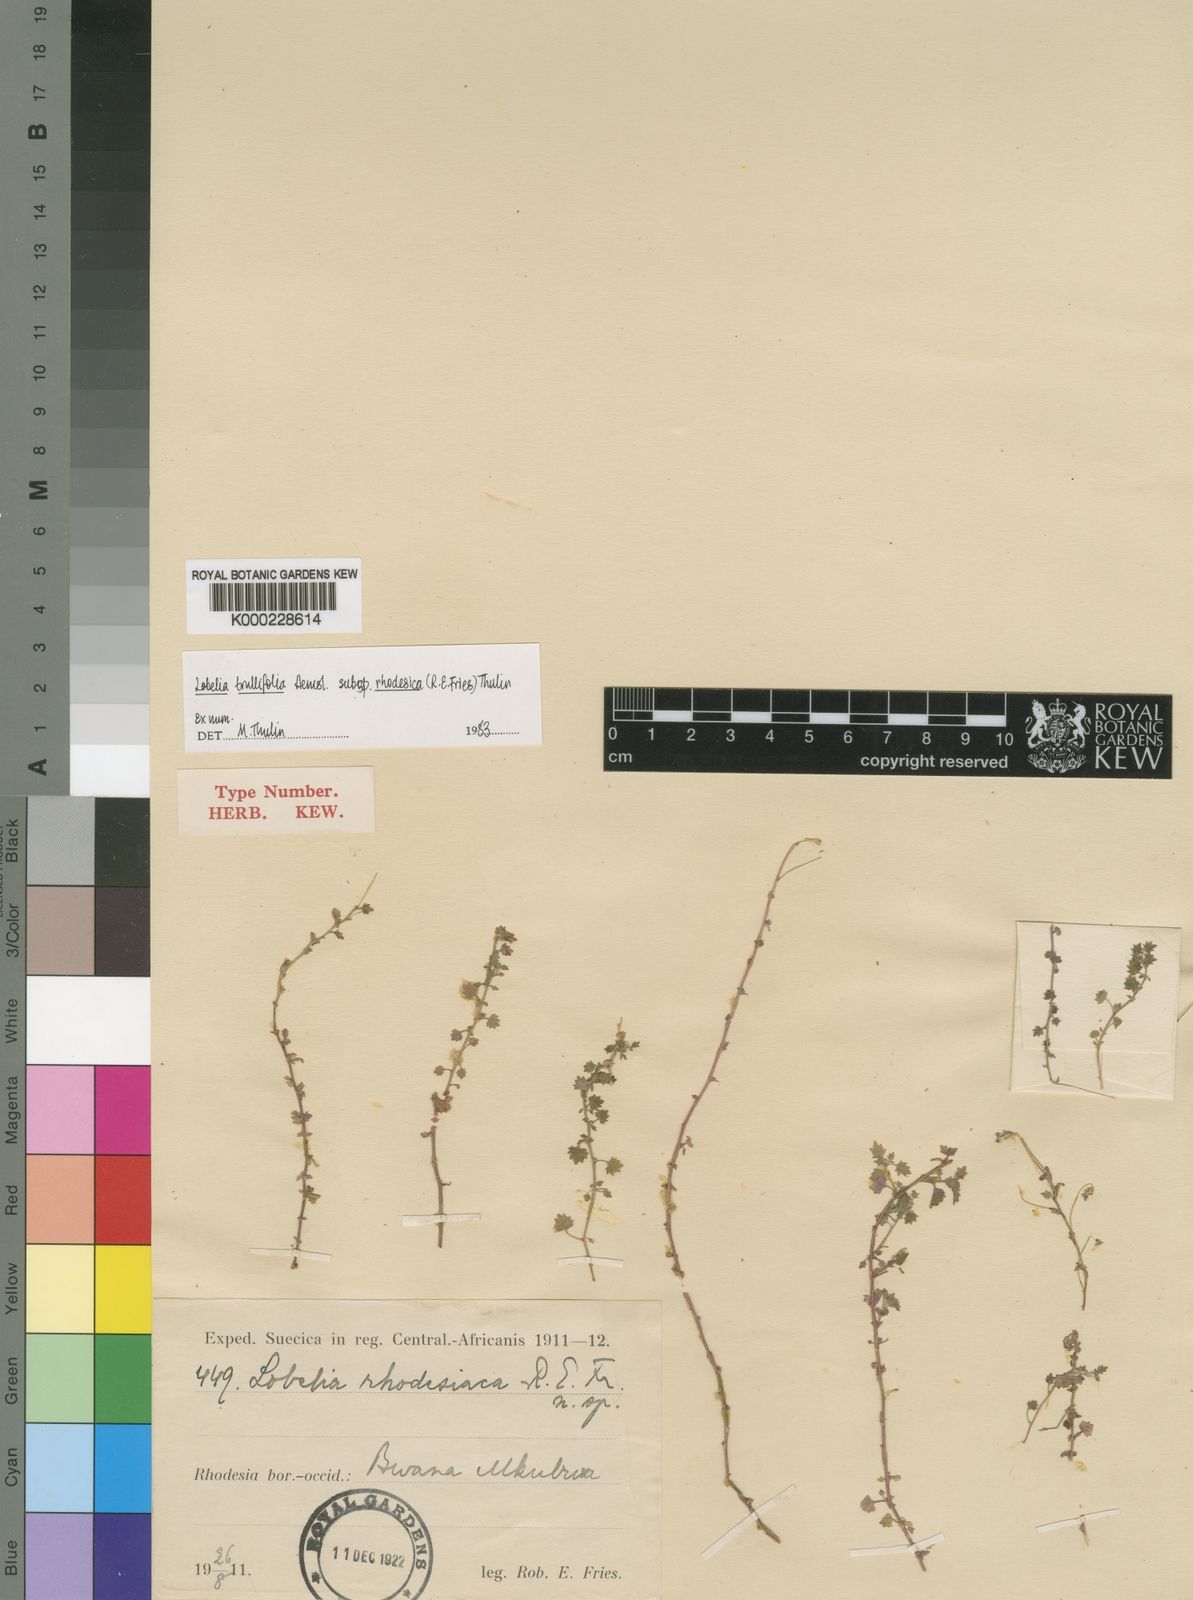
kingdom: Plantae
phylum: Tracheophyta
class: Magnoliopsida
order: Asterales
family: Campanulaceae
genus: Lobelia
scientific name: Lobelia trullifolia
